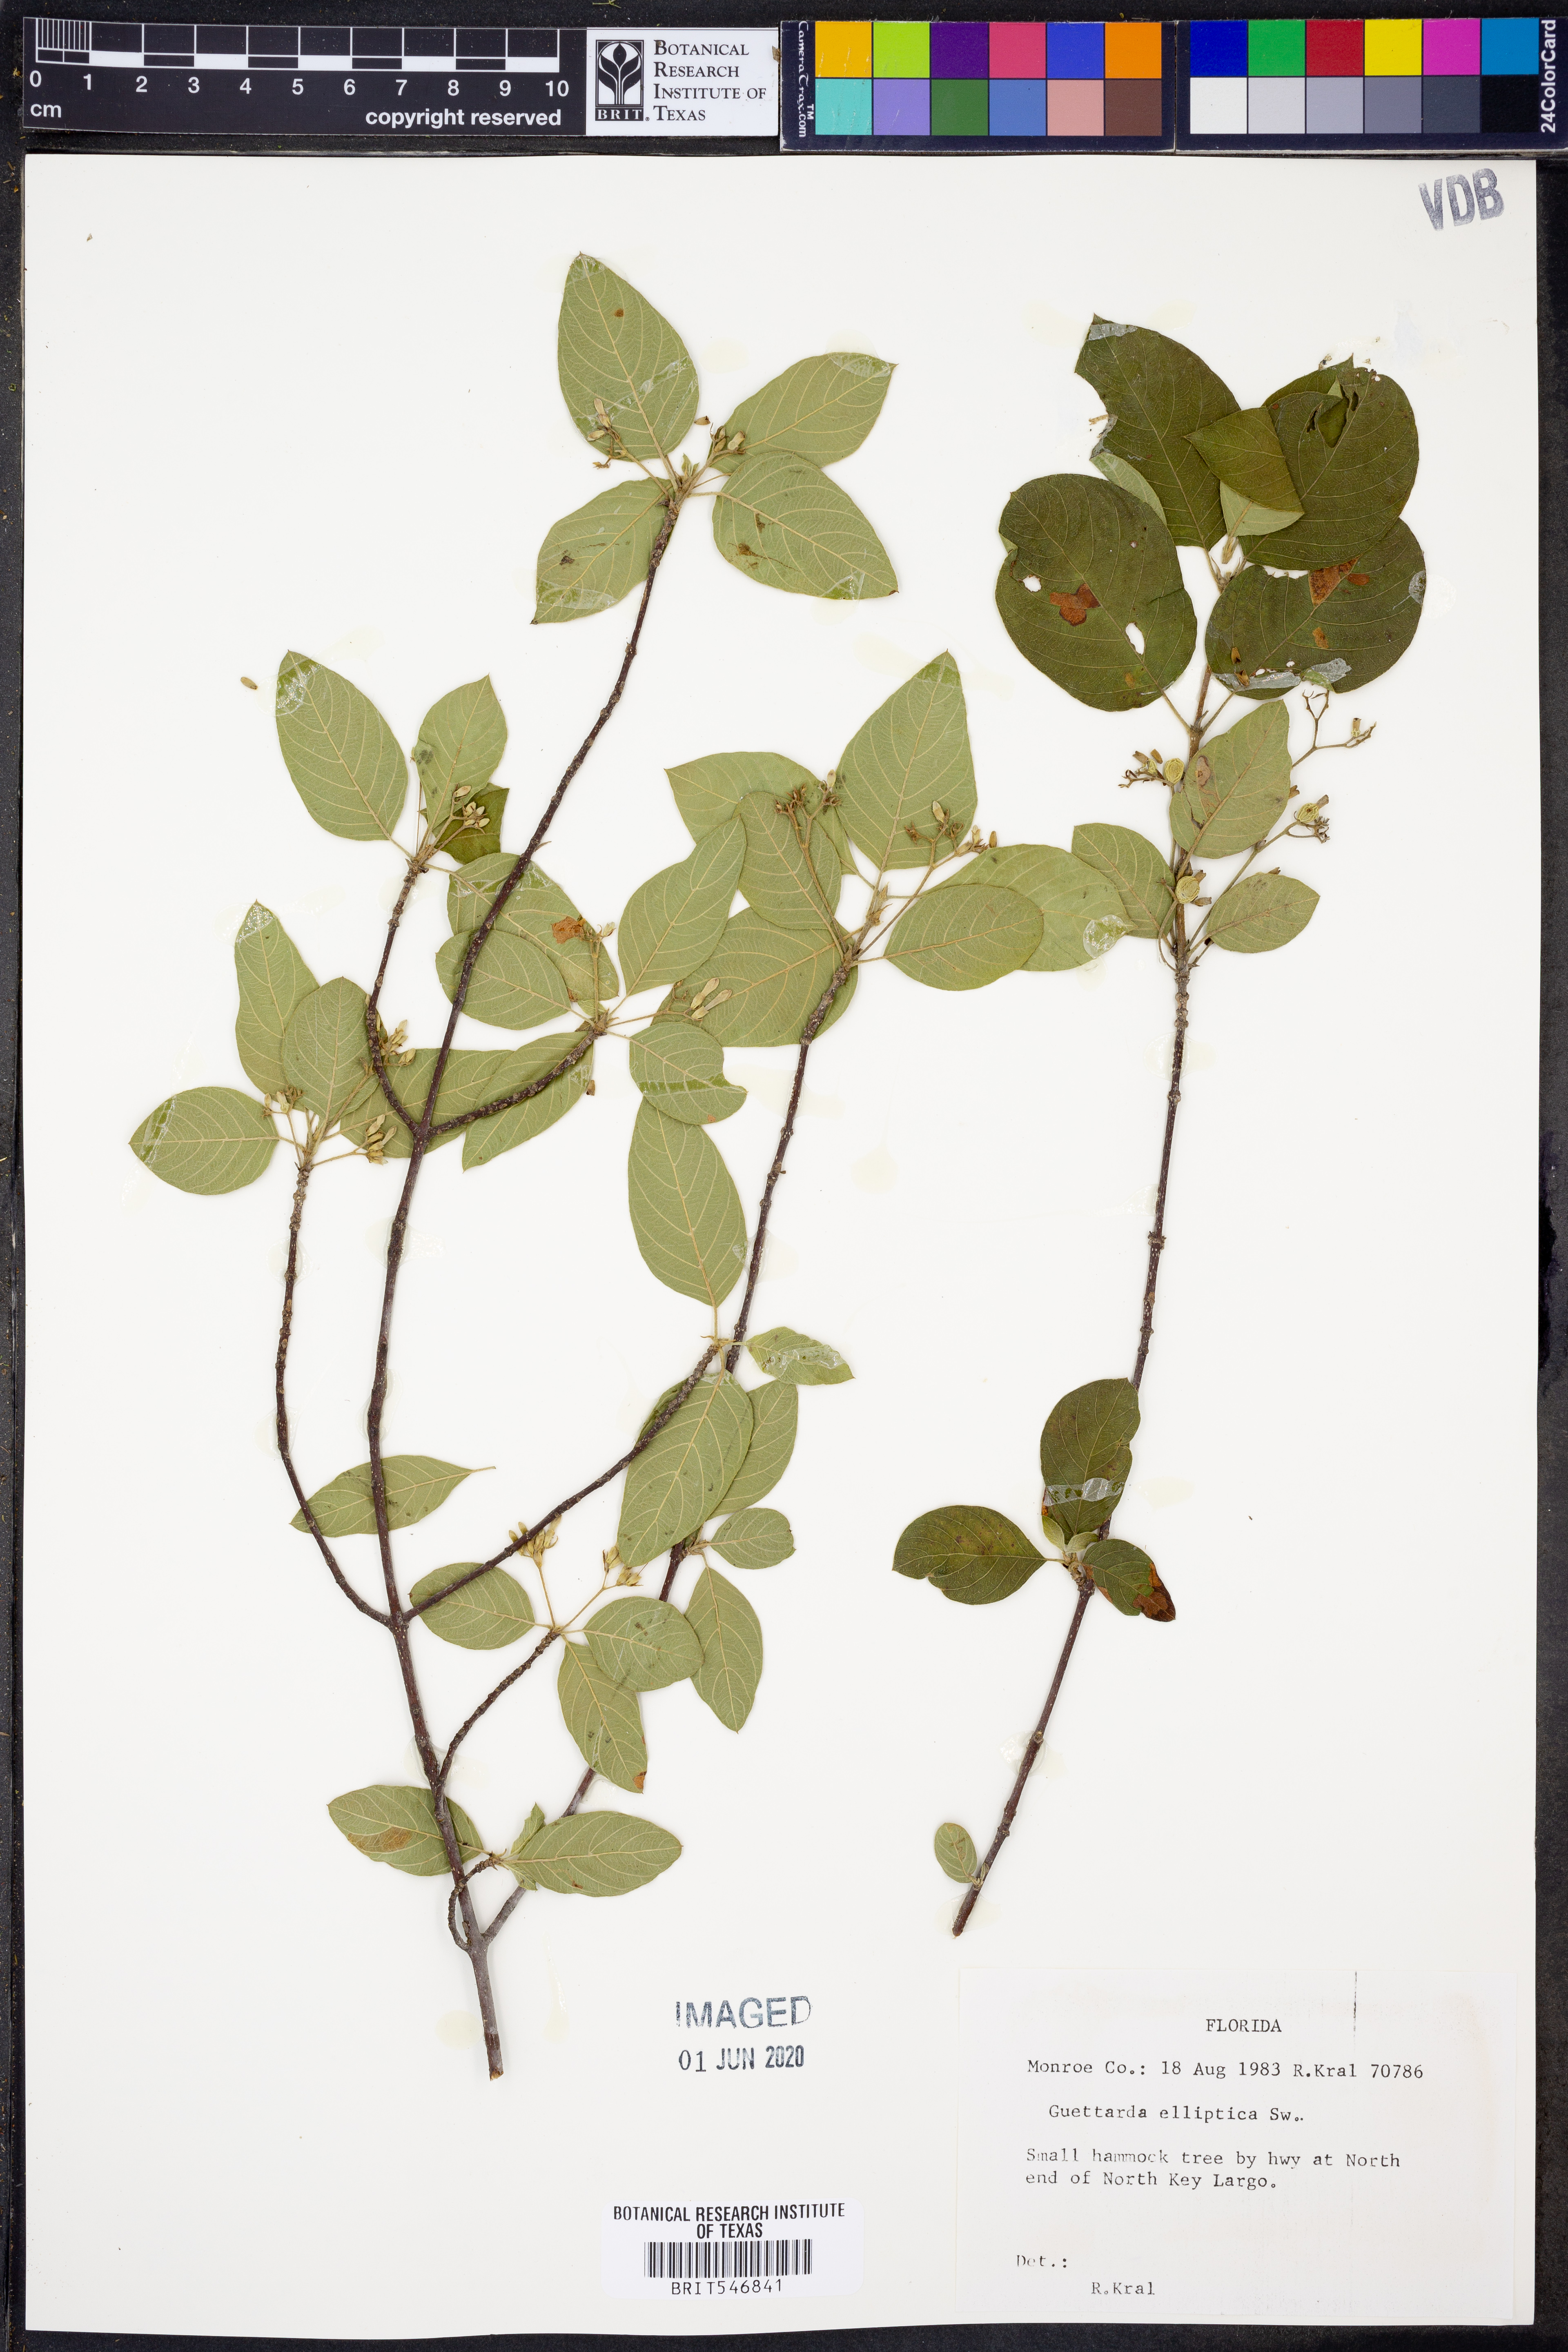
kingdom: Plantae
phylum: Tracheophyta
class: Magnoliopsida
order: Gentianales
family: Rubiaceae
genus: Guettarda
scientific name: Guettarda elliptica
